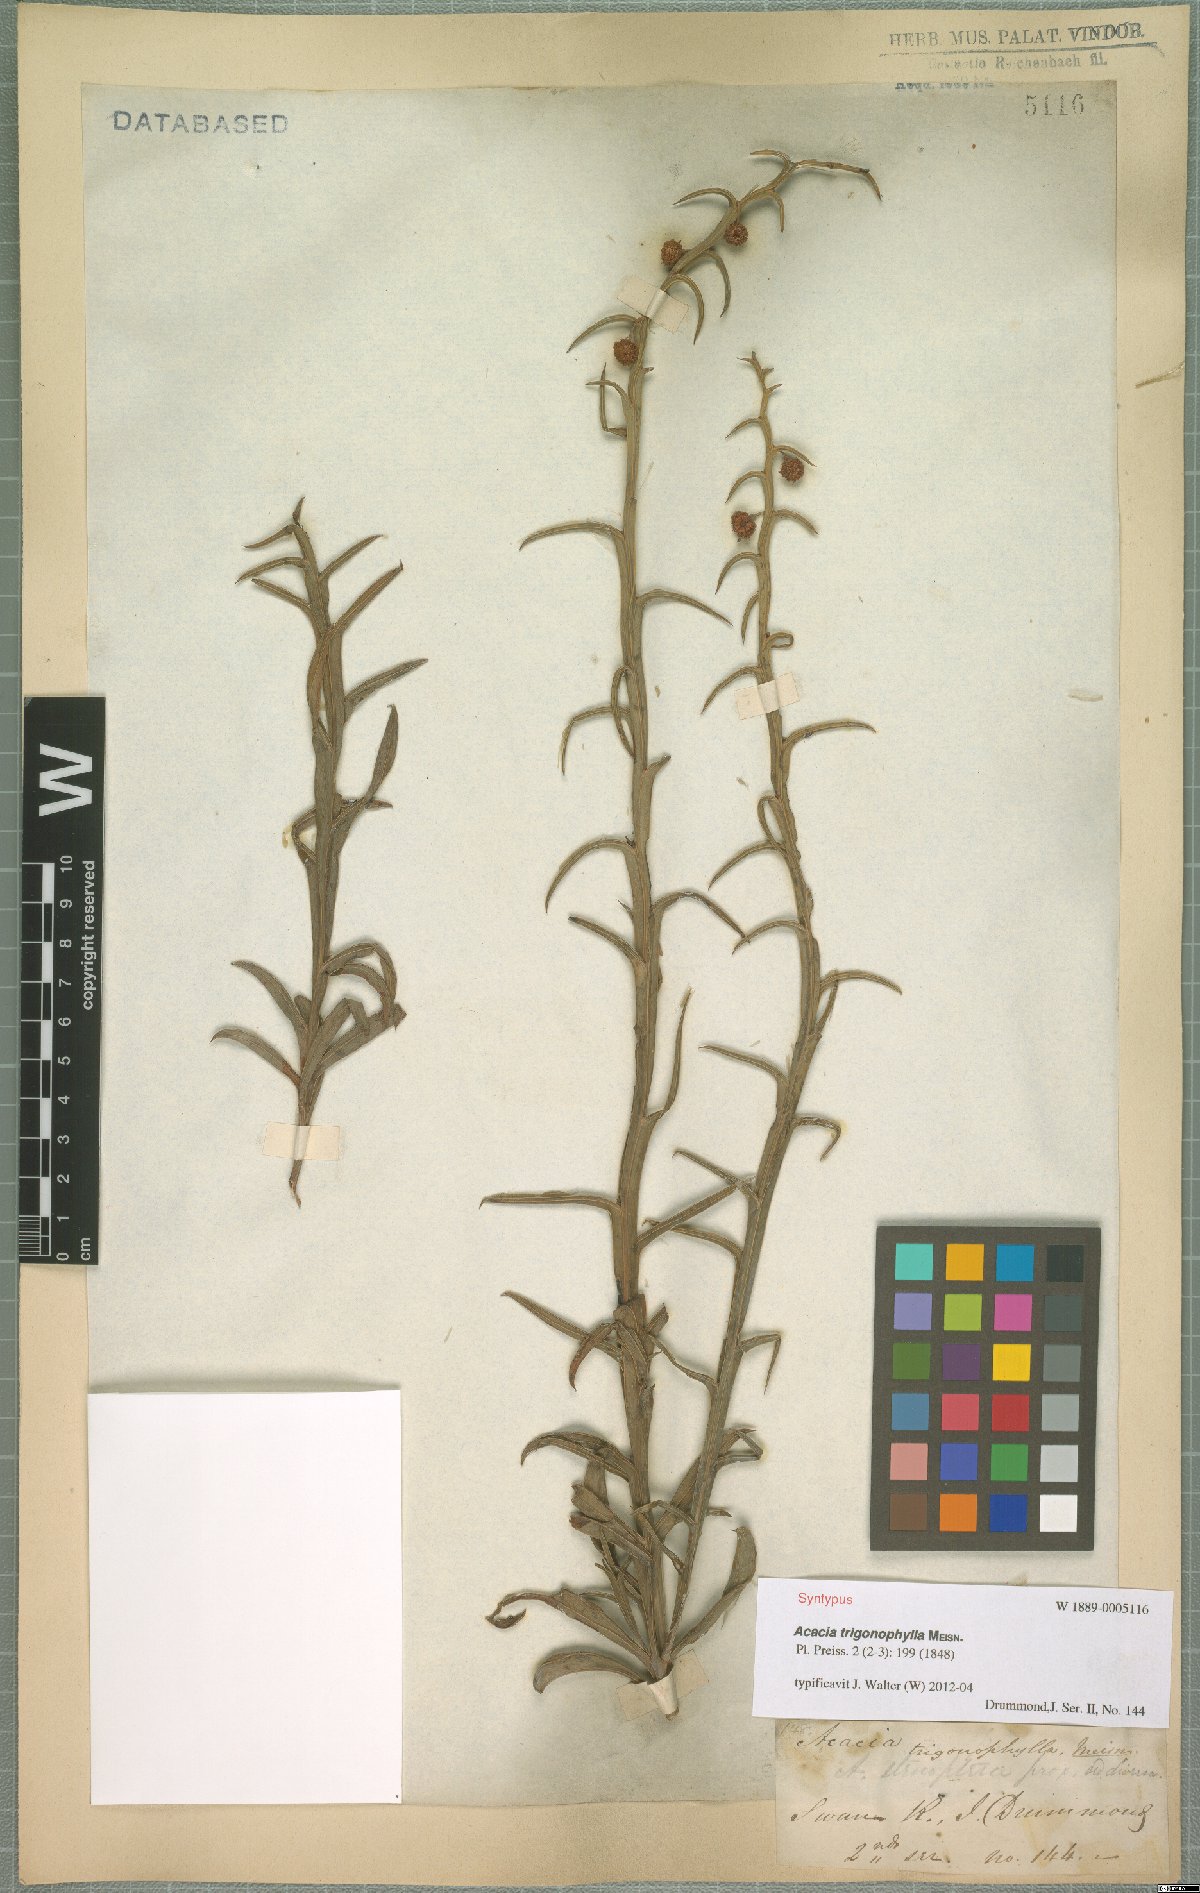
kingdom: Plantae
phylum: Tracheophyta
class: Magnoliopsida
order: Fabales
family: Fabaceae
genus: Acacia
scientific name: Acacia trigonophylla
